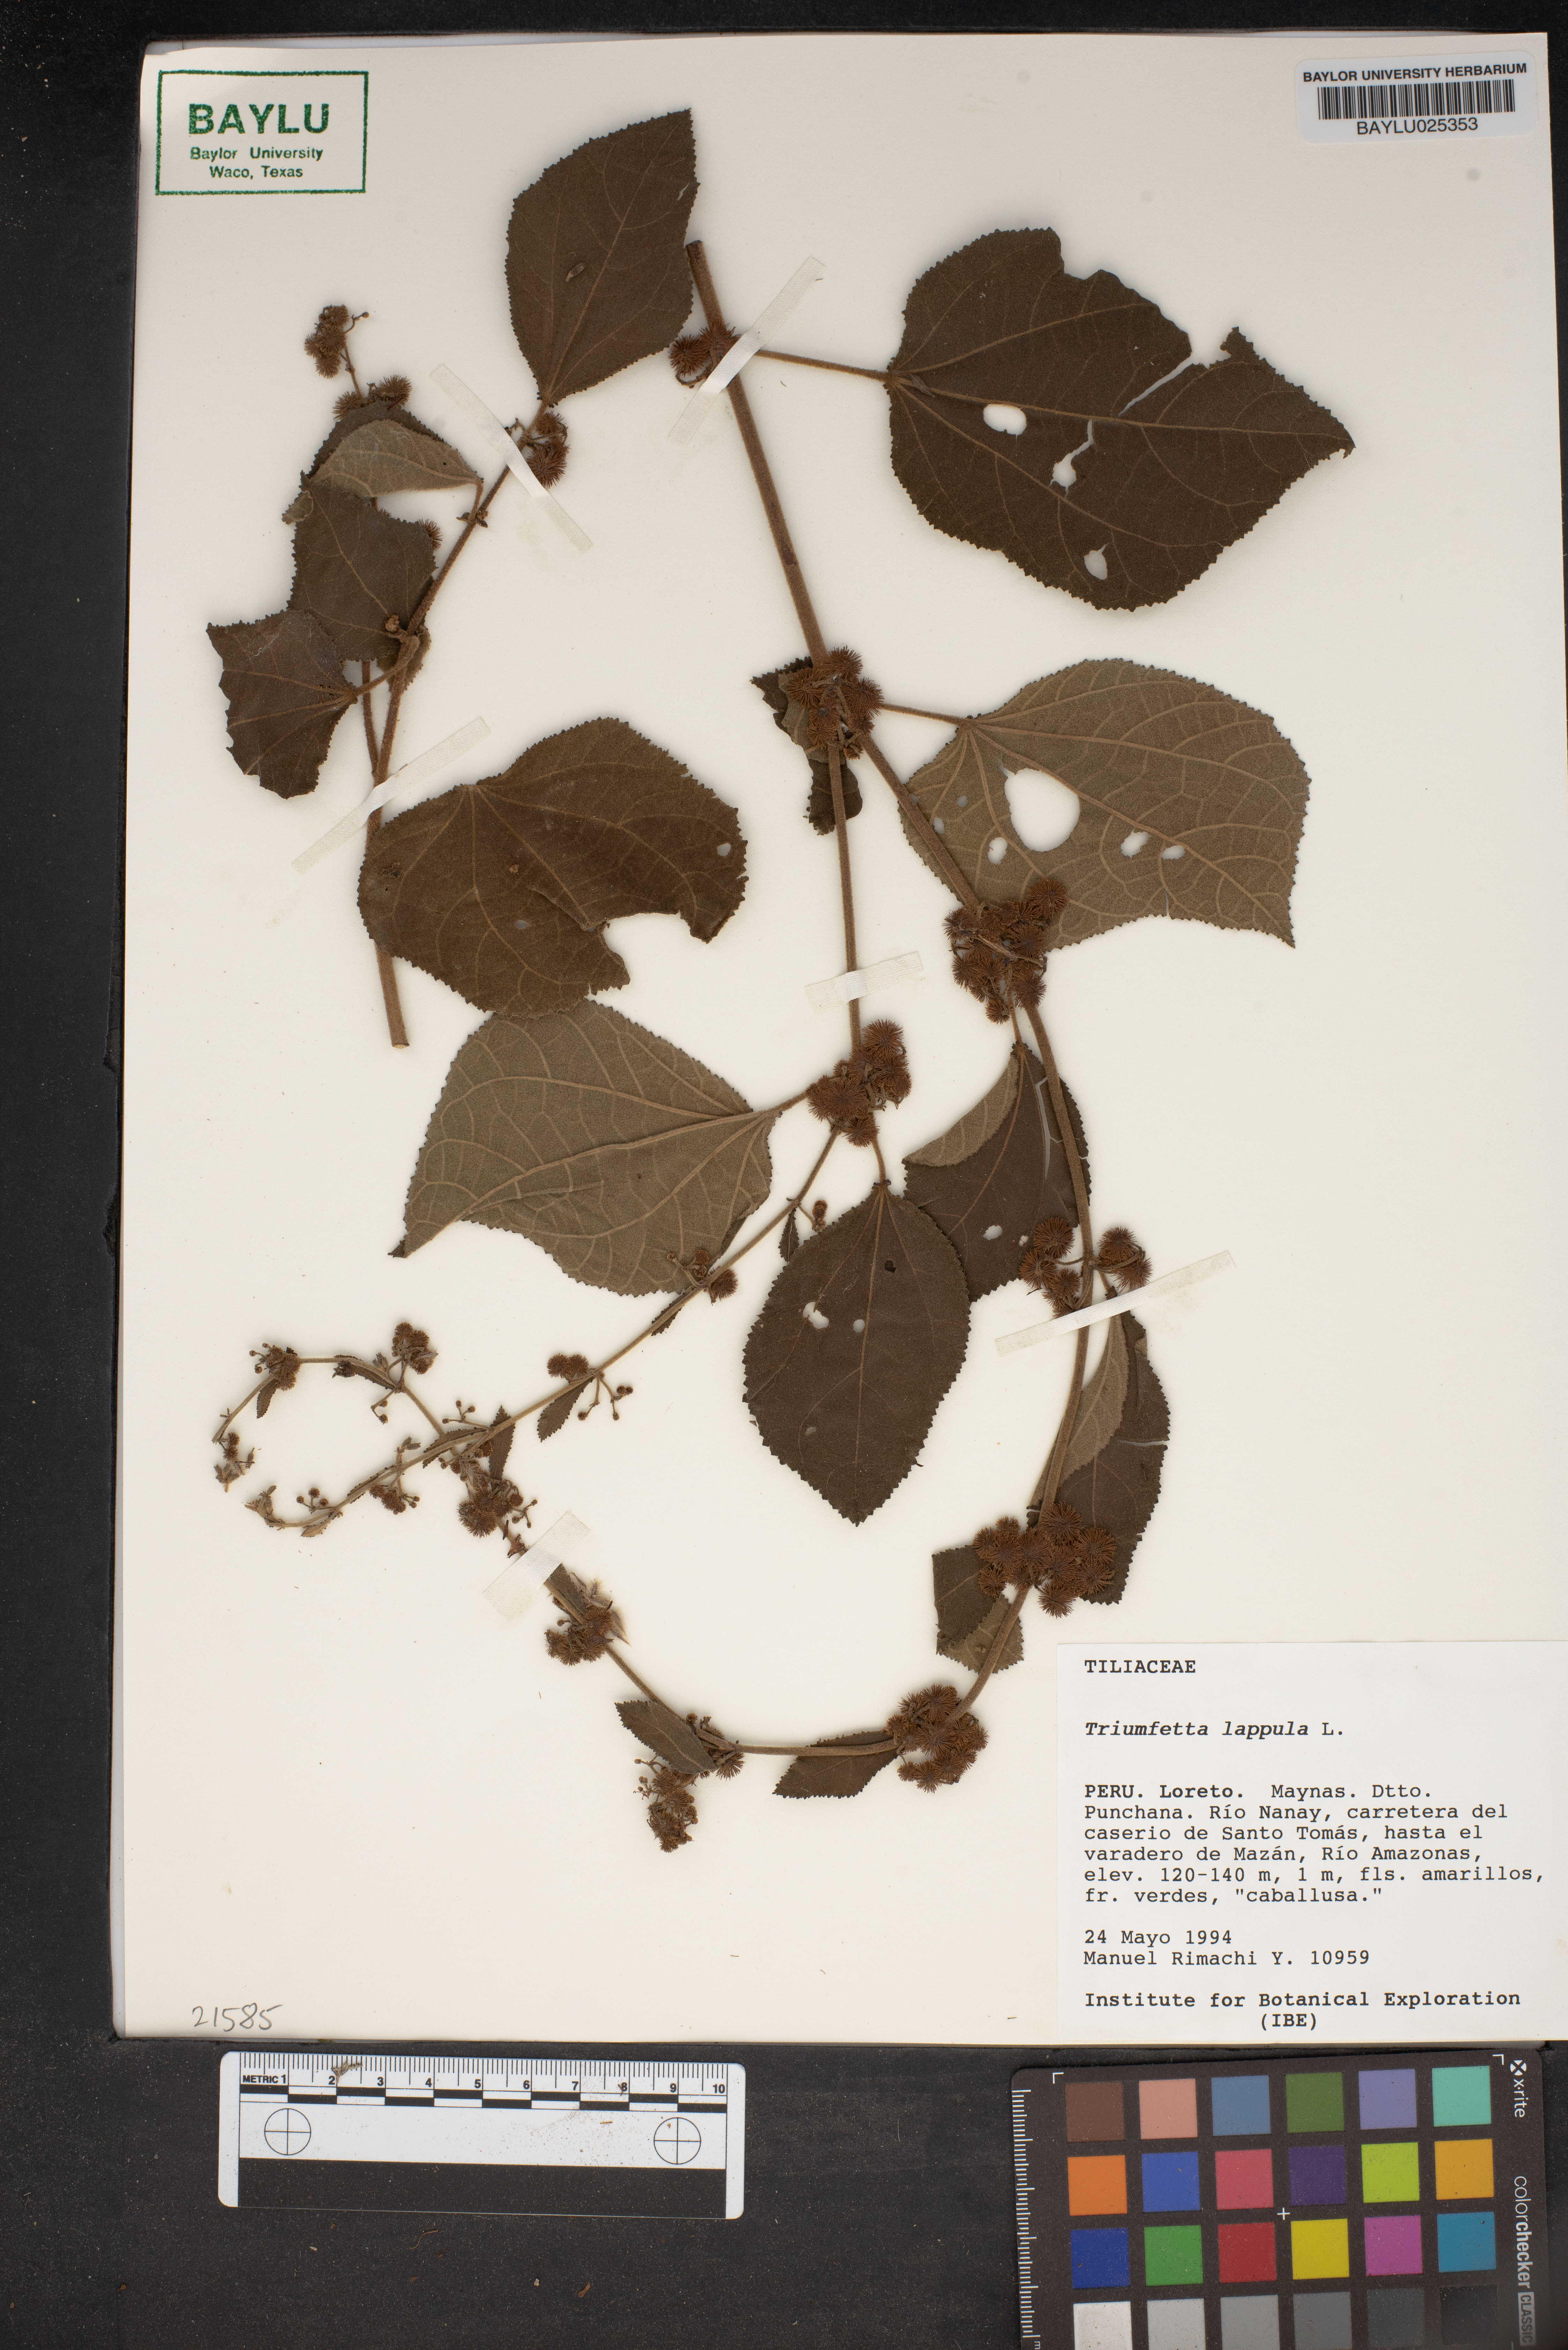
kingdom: Plantae
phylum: Tracheophyta
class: Magnoliopsida
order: Malvales
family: Malvaceae
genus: Triumfetta
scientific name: Triumfetta rhomboidea
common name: Diamond burbark
